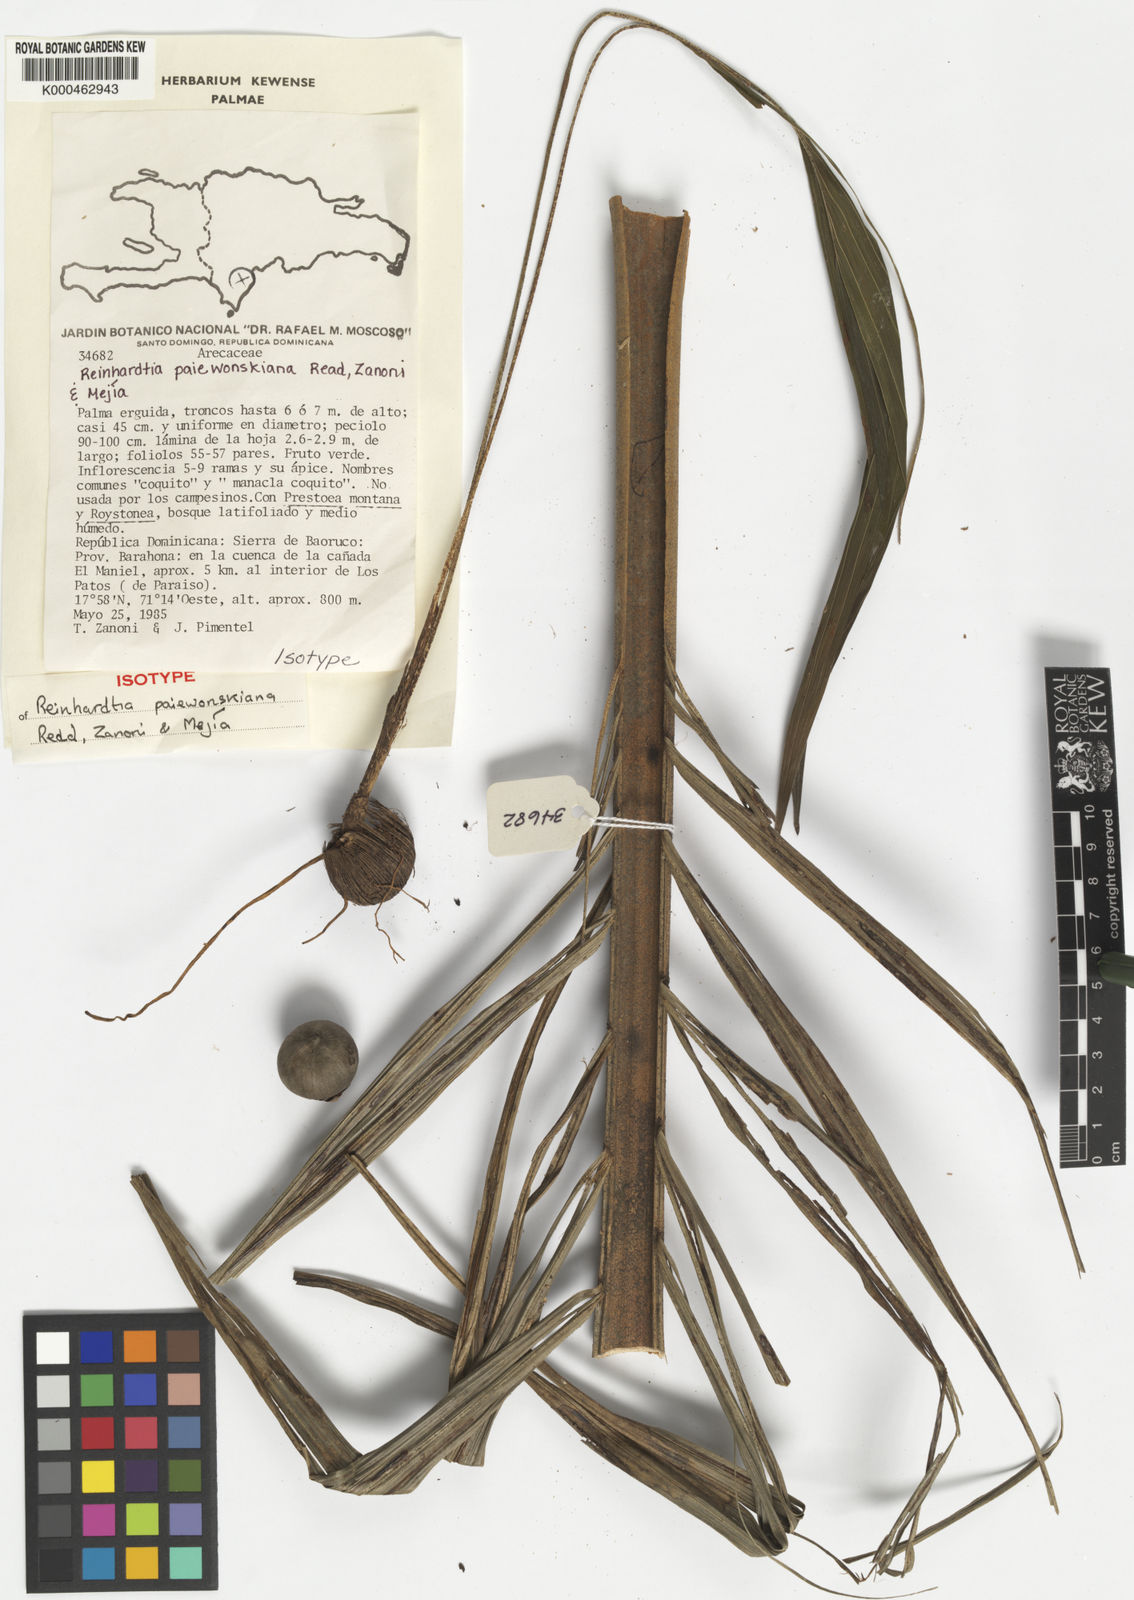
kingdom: Plantae
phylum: Tracheophyta
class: Liliopsida
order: Arecales
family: Arecaceae
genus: Reinhardtia
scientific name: Reinhardtia
